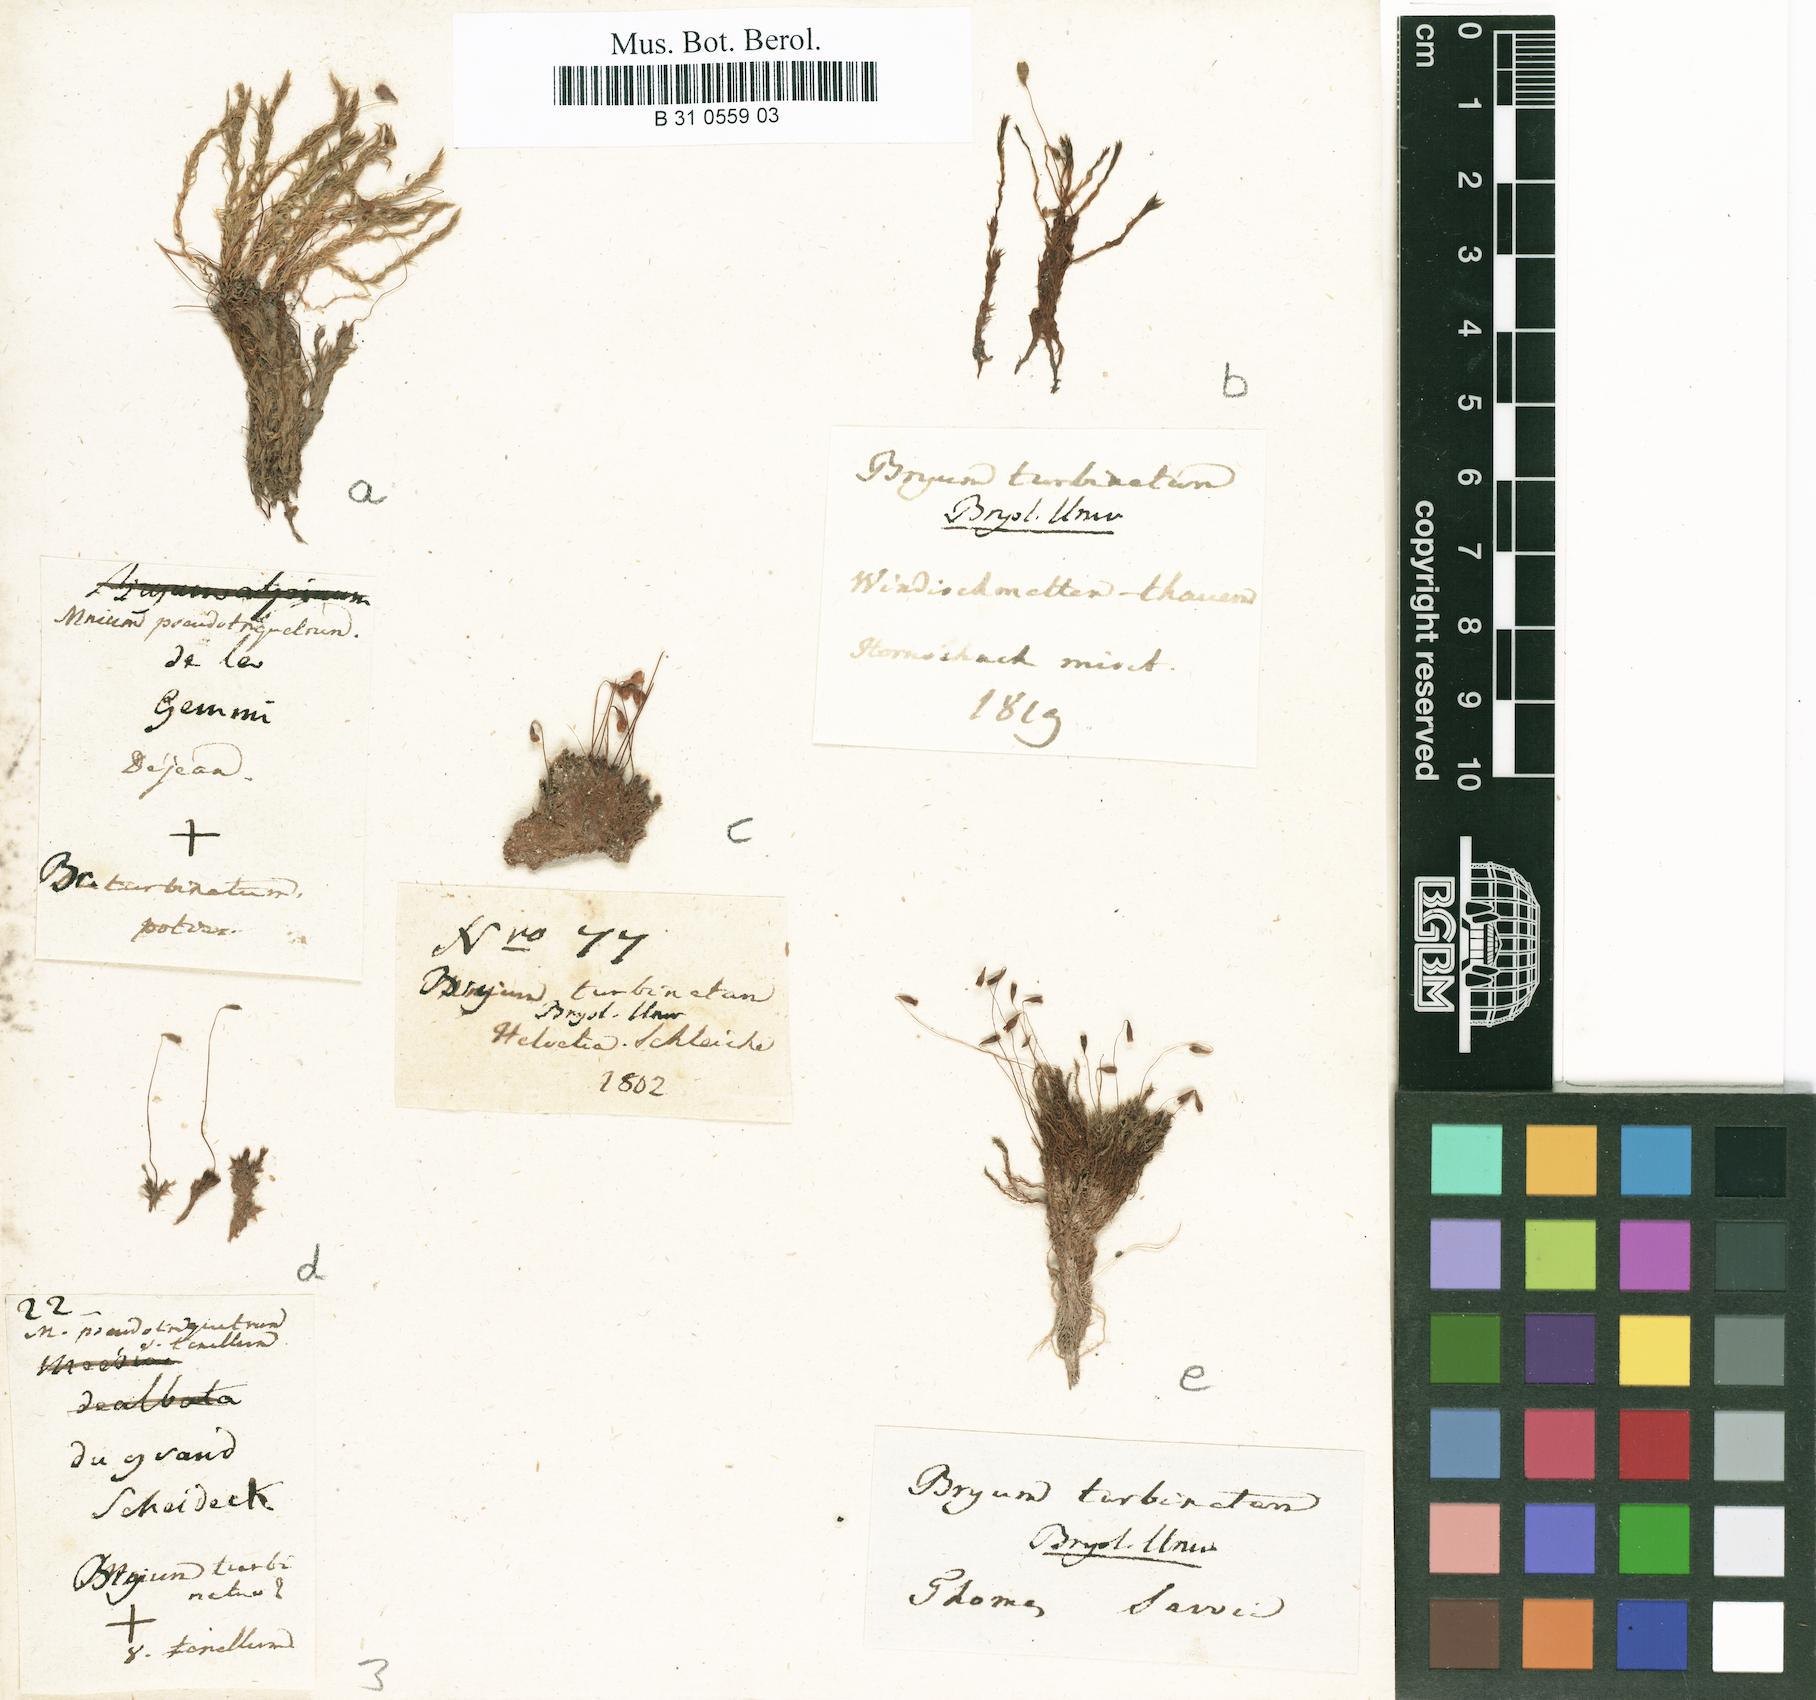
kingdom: Plantae
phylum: Bryophyta
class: Bryopsida
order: Bryales
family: Bryaceae
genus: Ptychostomum
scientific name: Ptychostomum turbinatum
